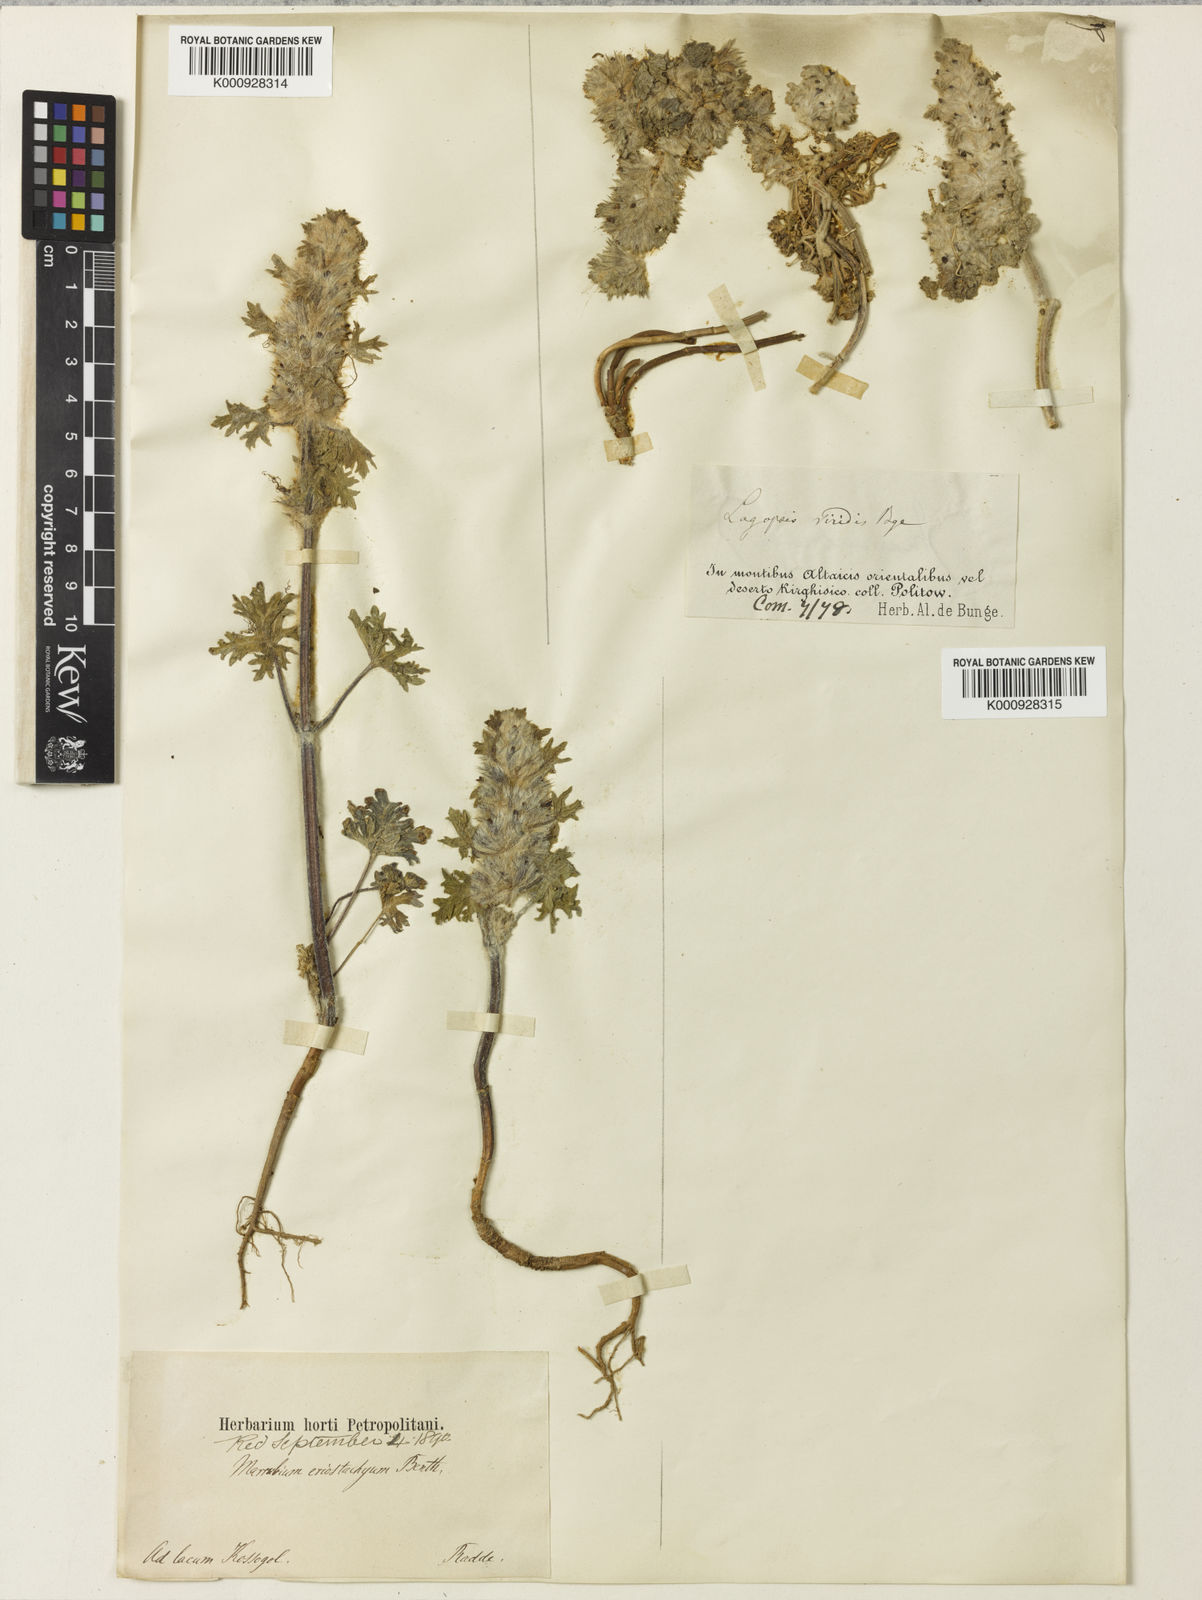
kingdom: Plantae
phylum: Tracheophyta
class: Magnoliopsida
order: Lamiales
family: Lamiaceae
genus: Lagopsis
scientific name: Lagopsis eriostachya
